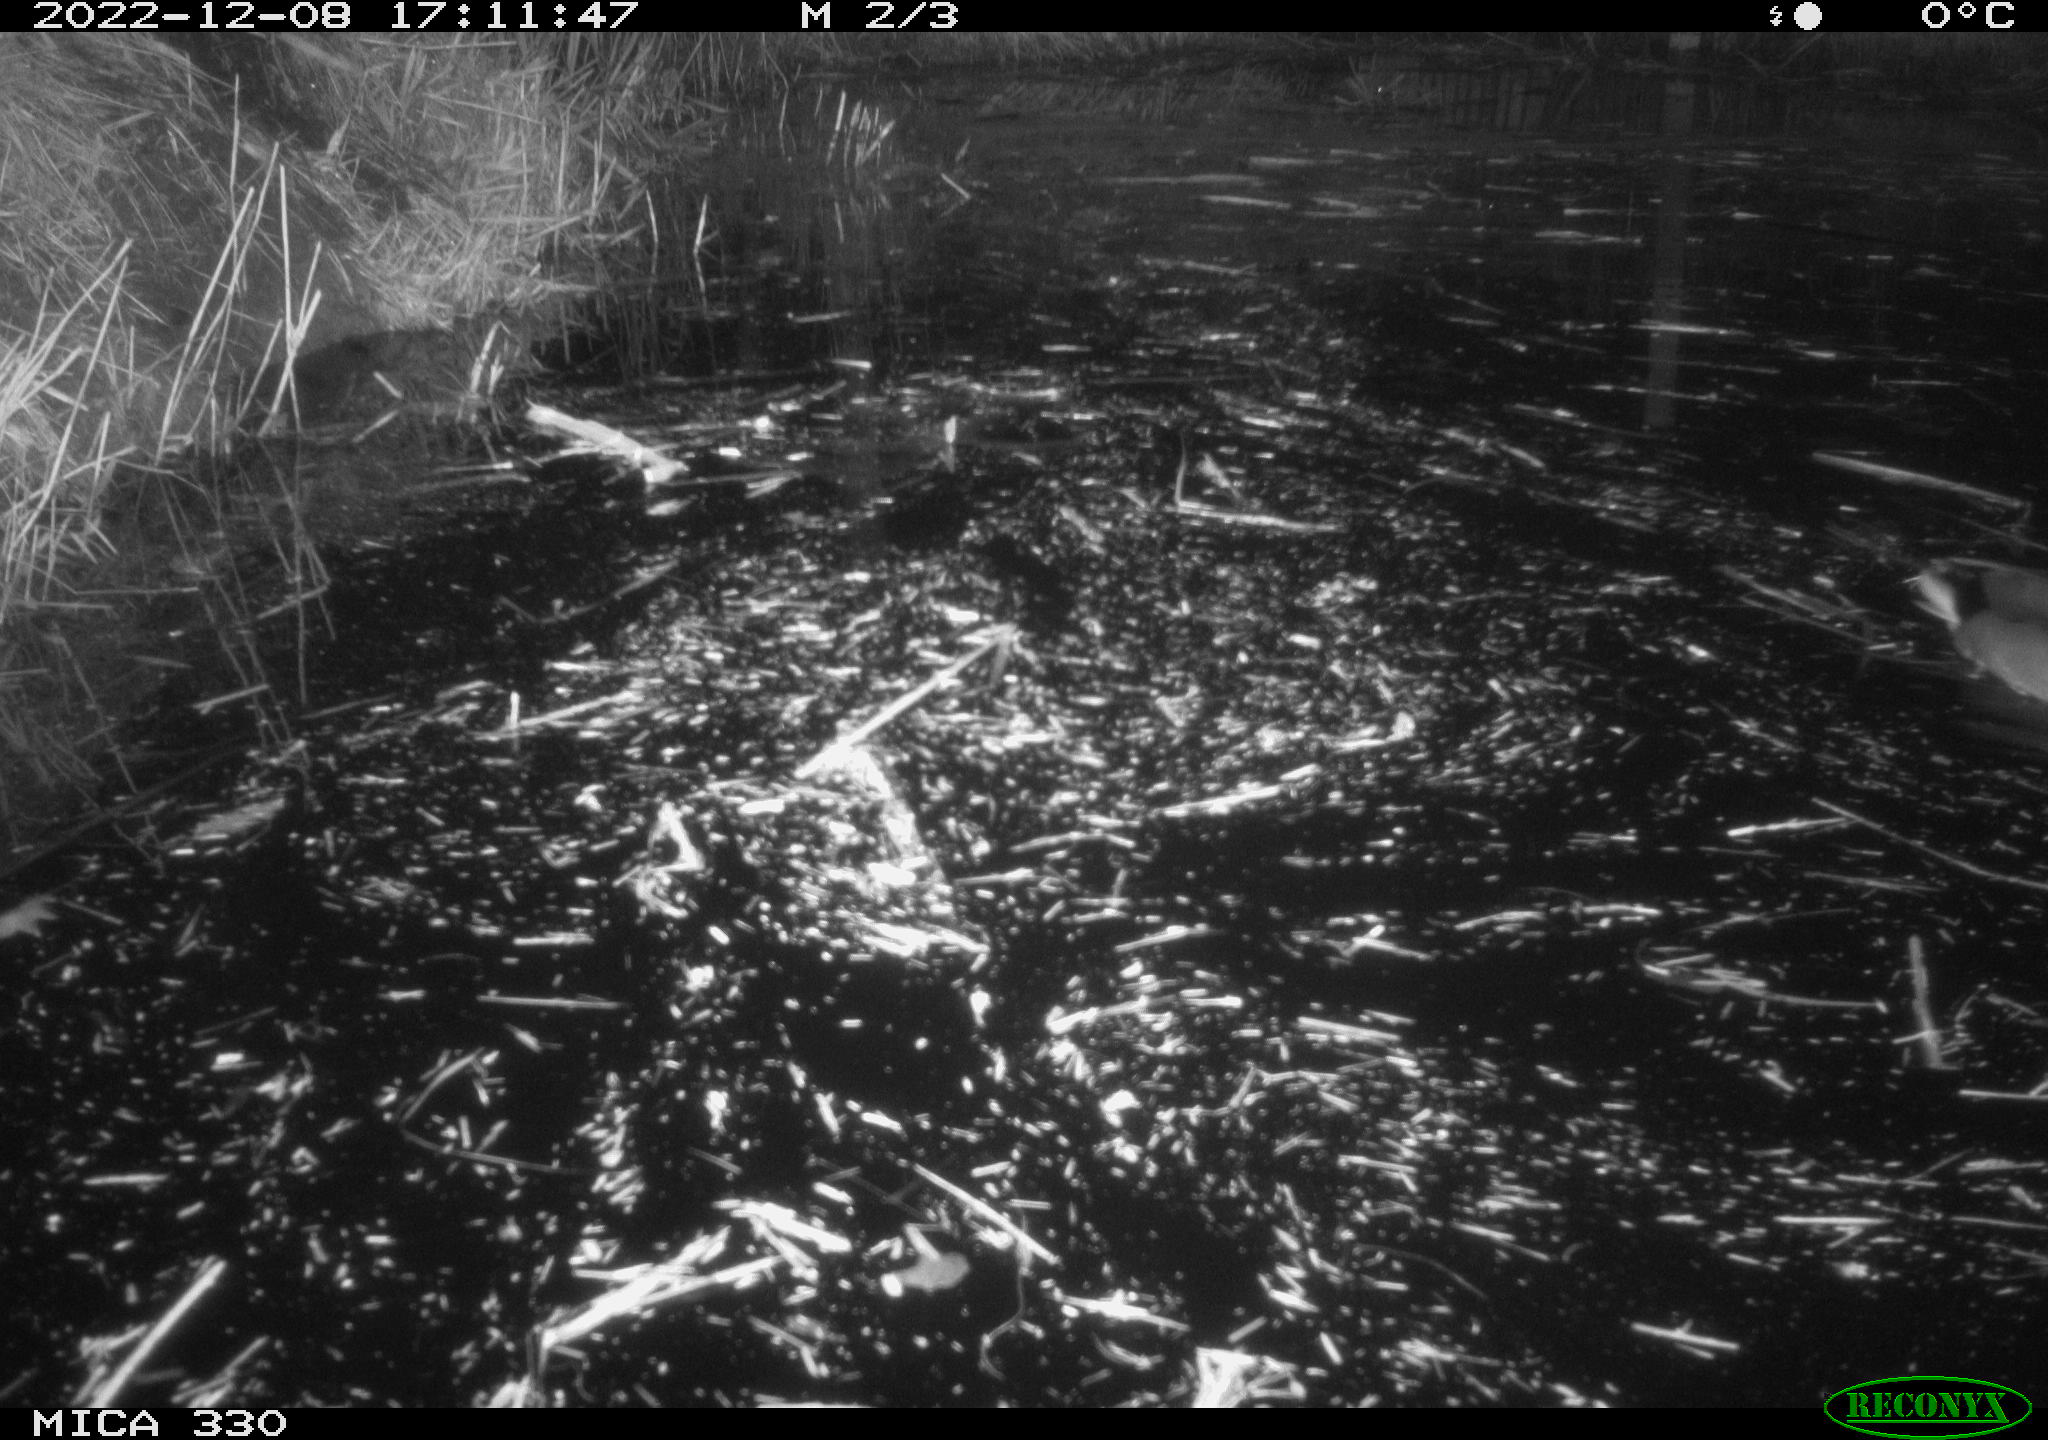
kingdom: Animalia
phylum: Chordata
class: Aves
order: Anseriformes
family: Anatidae
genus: Anas
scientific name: Anas platyrhynchos
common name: Mallard
